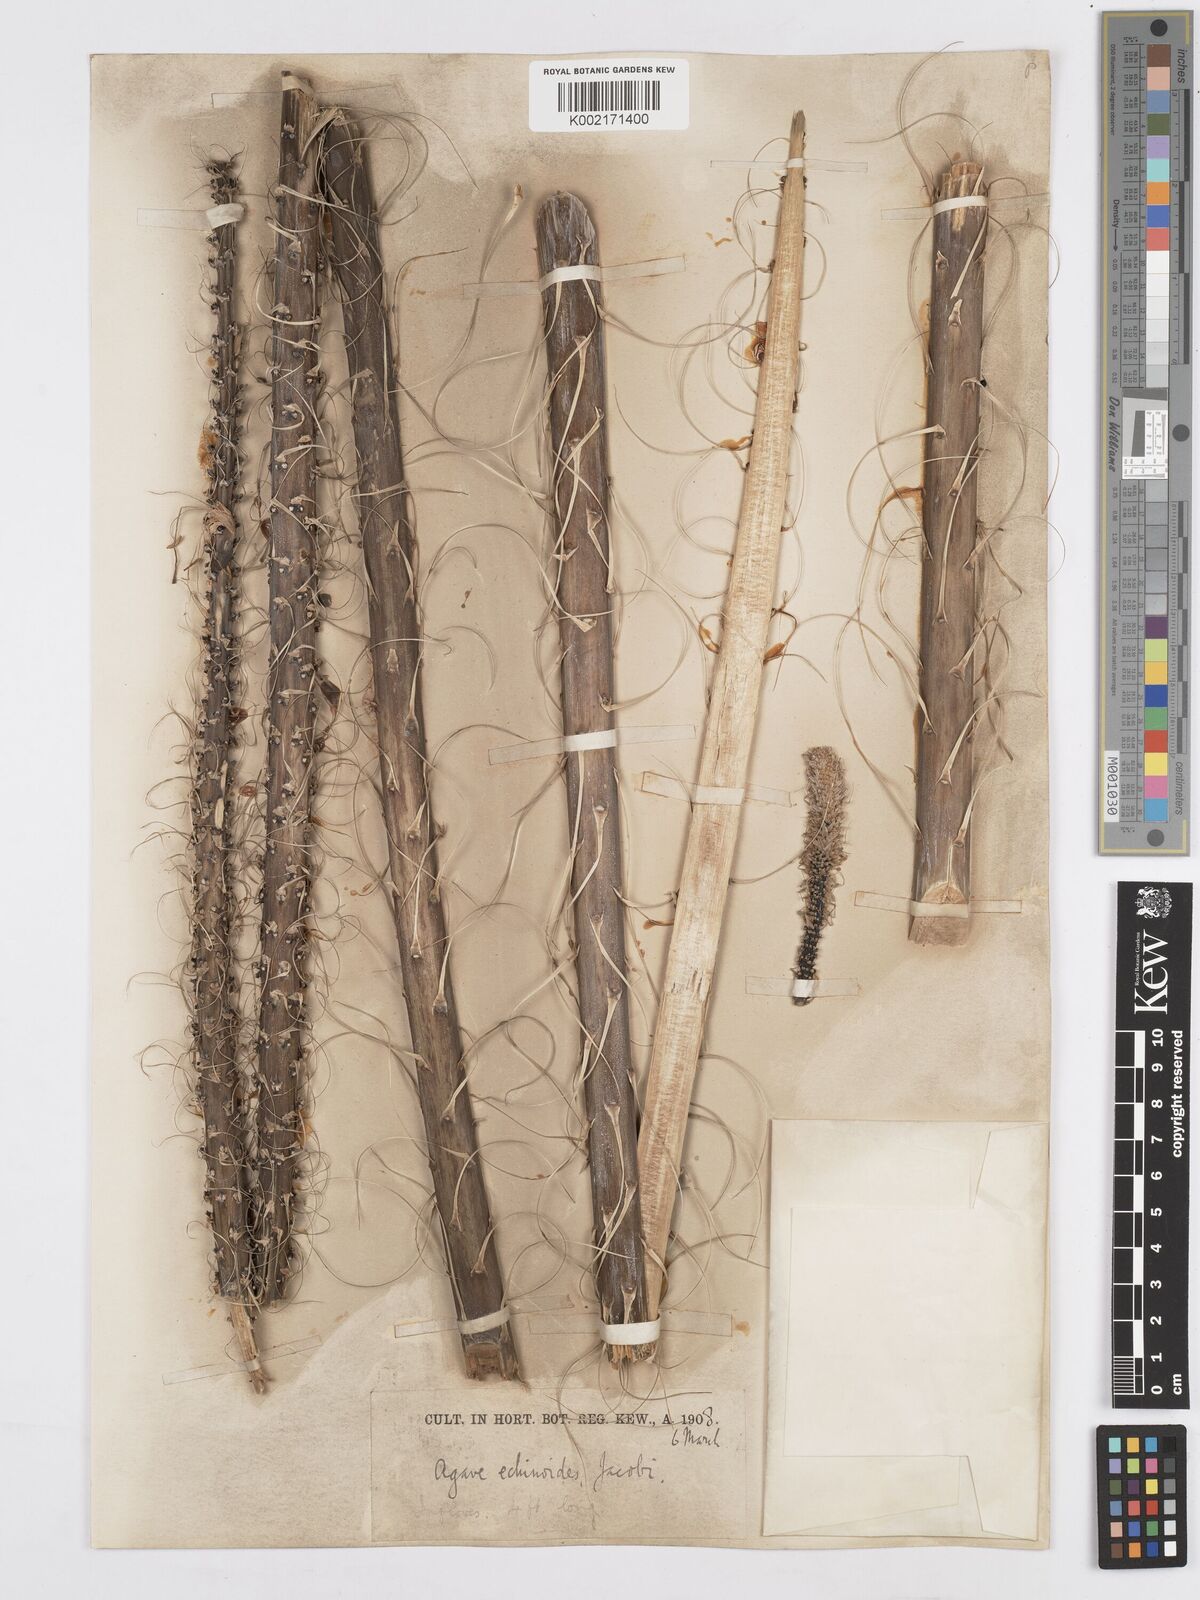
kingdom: Plantae
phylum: Tracheophyta
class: Liliopsida
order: Asparagales
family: Asparagaceae
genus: Agave
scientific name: Agave striata
